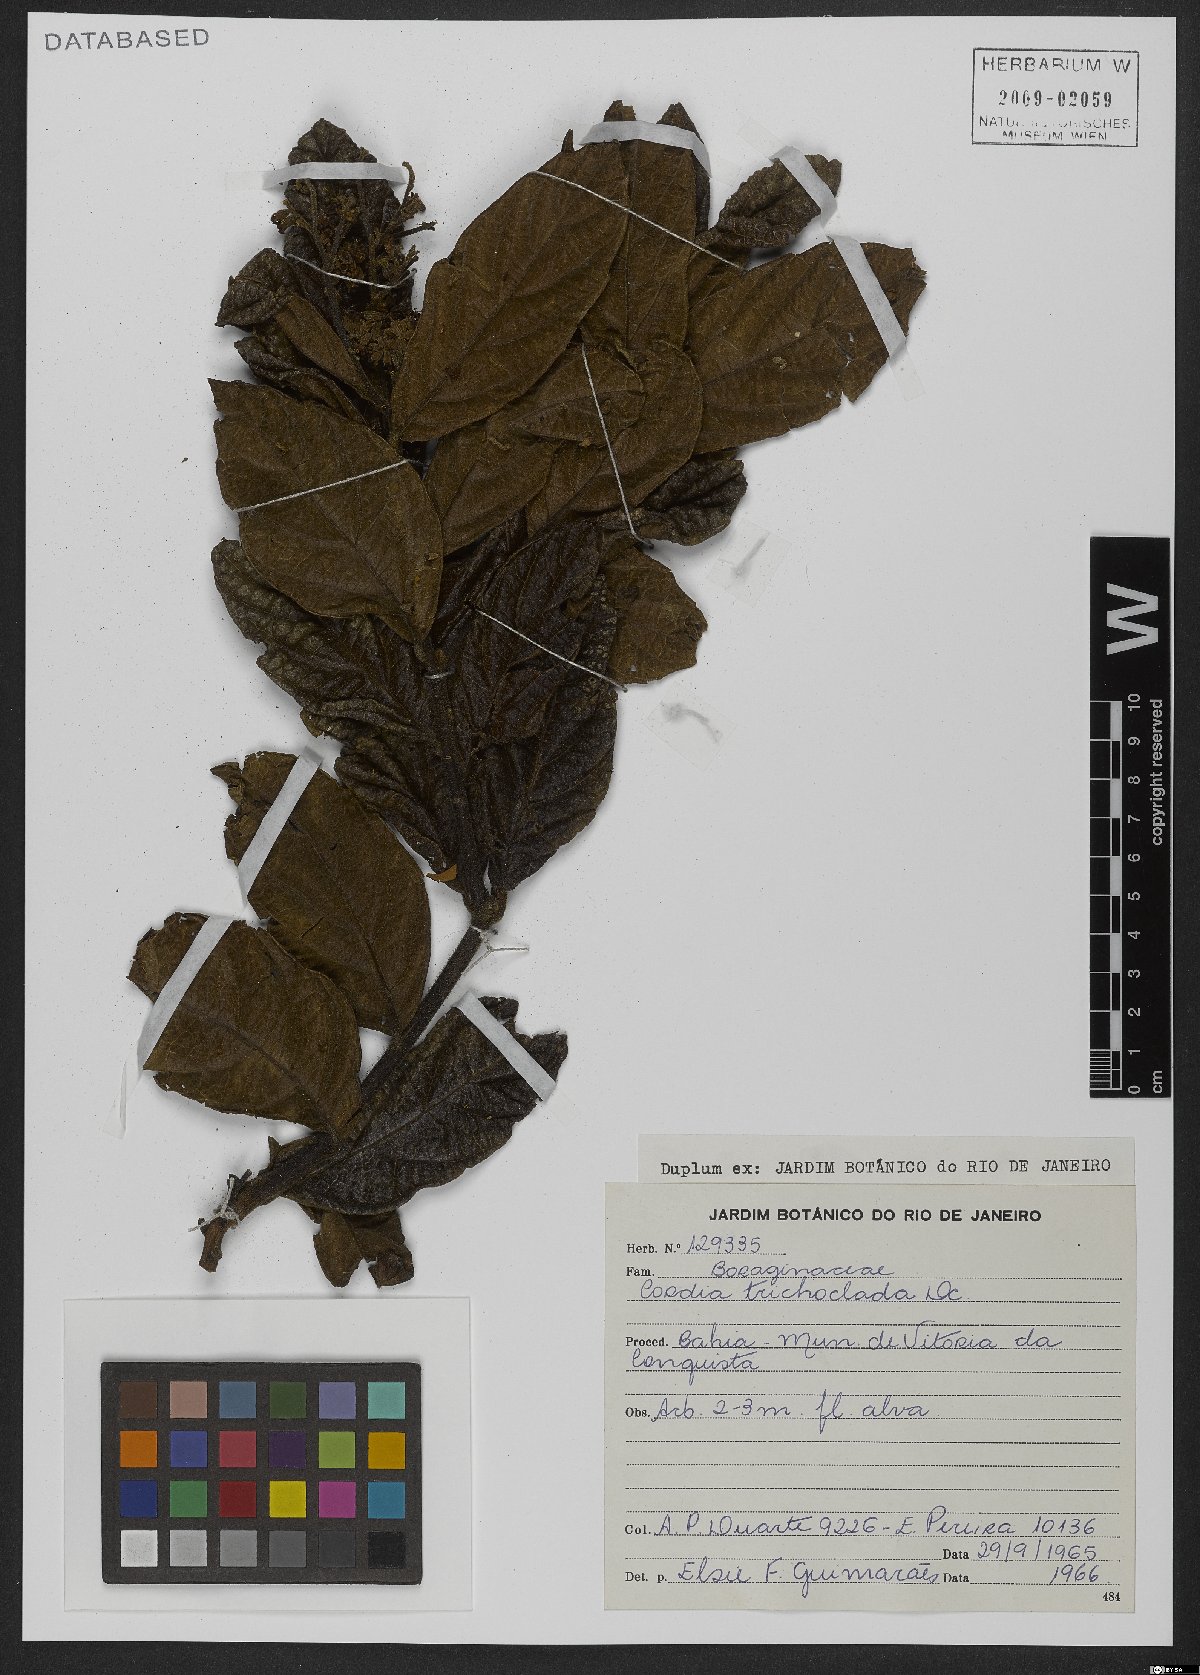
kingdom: Plantae
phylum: Tracheophyta
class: Magnoliopsida
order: Boraginales
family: Cordiaceae
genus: Cordia
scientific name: Cordia trichoclada
